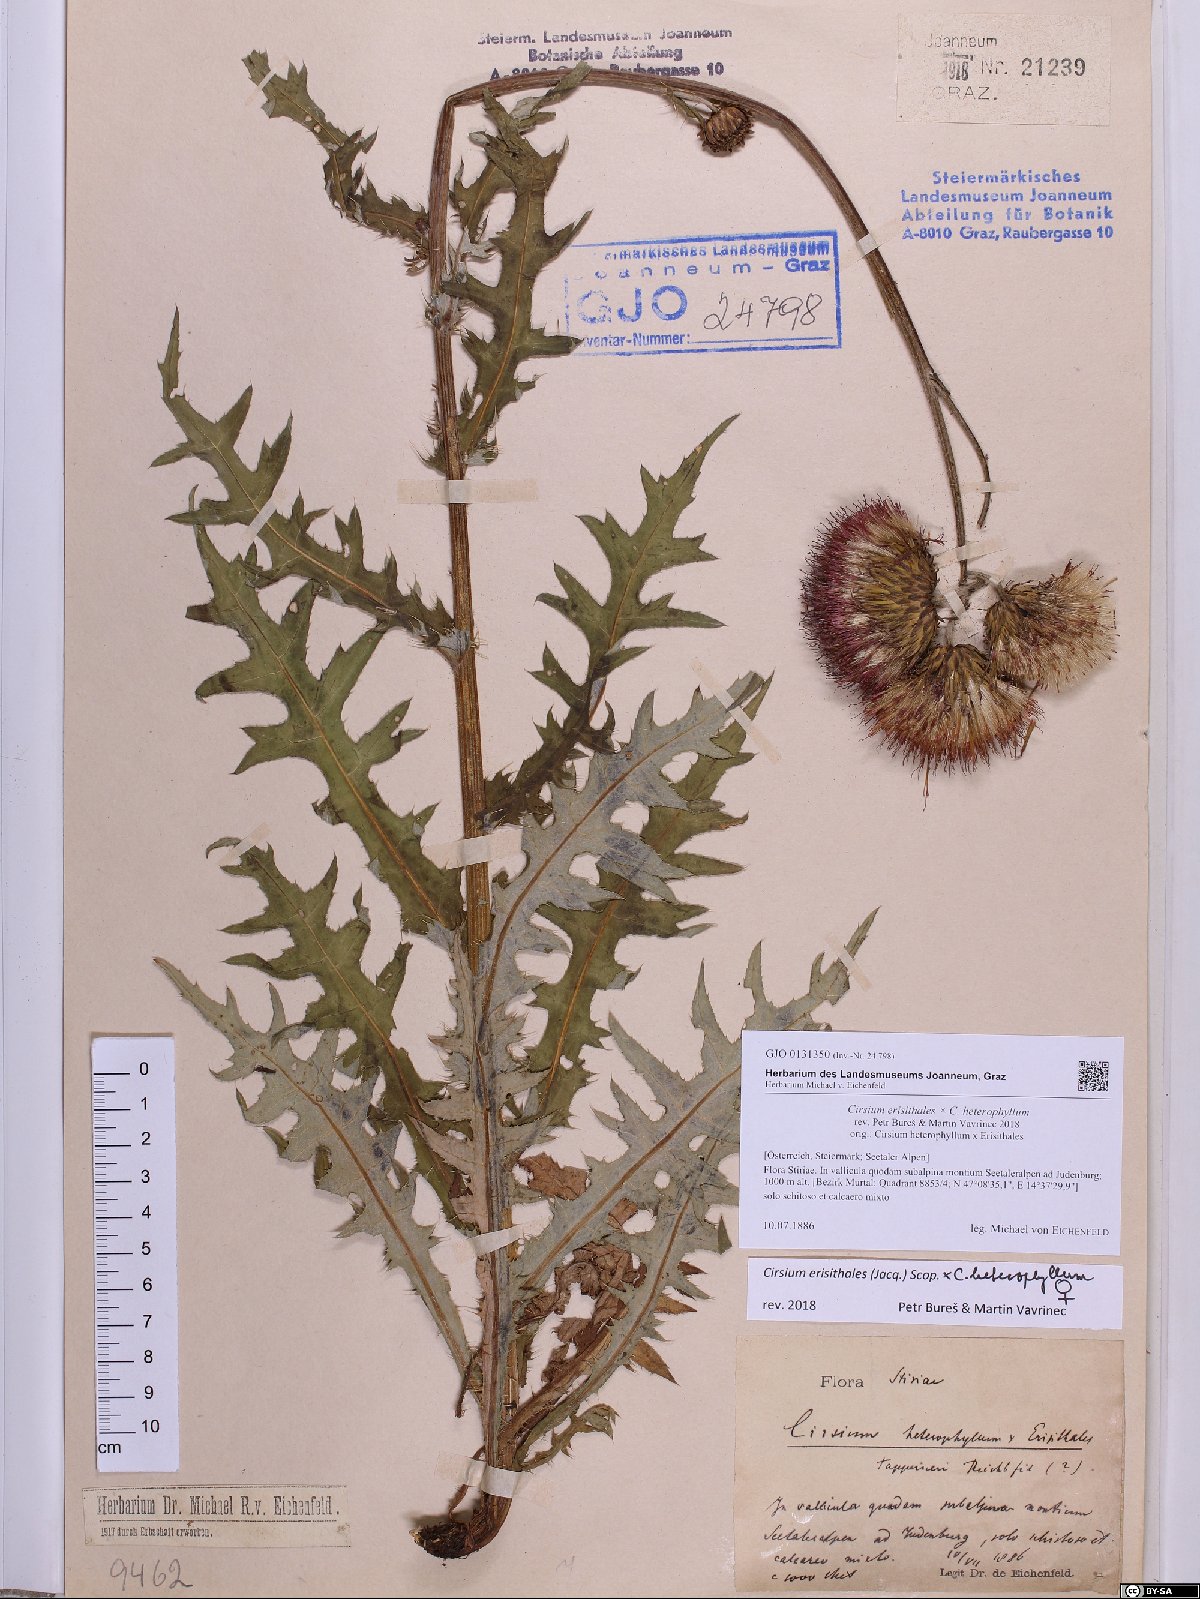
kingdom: Plantae
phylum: Tracheophyta
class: Magnoliopsida
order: Asterales
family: Asteraceae
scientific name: Asteraceae
